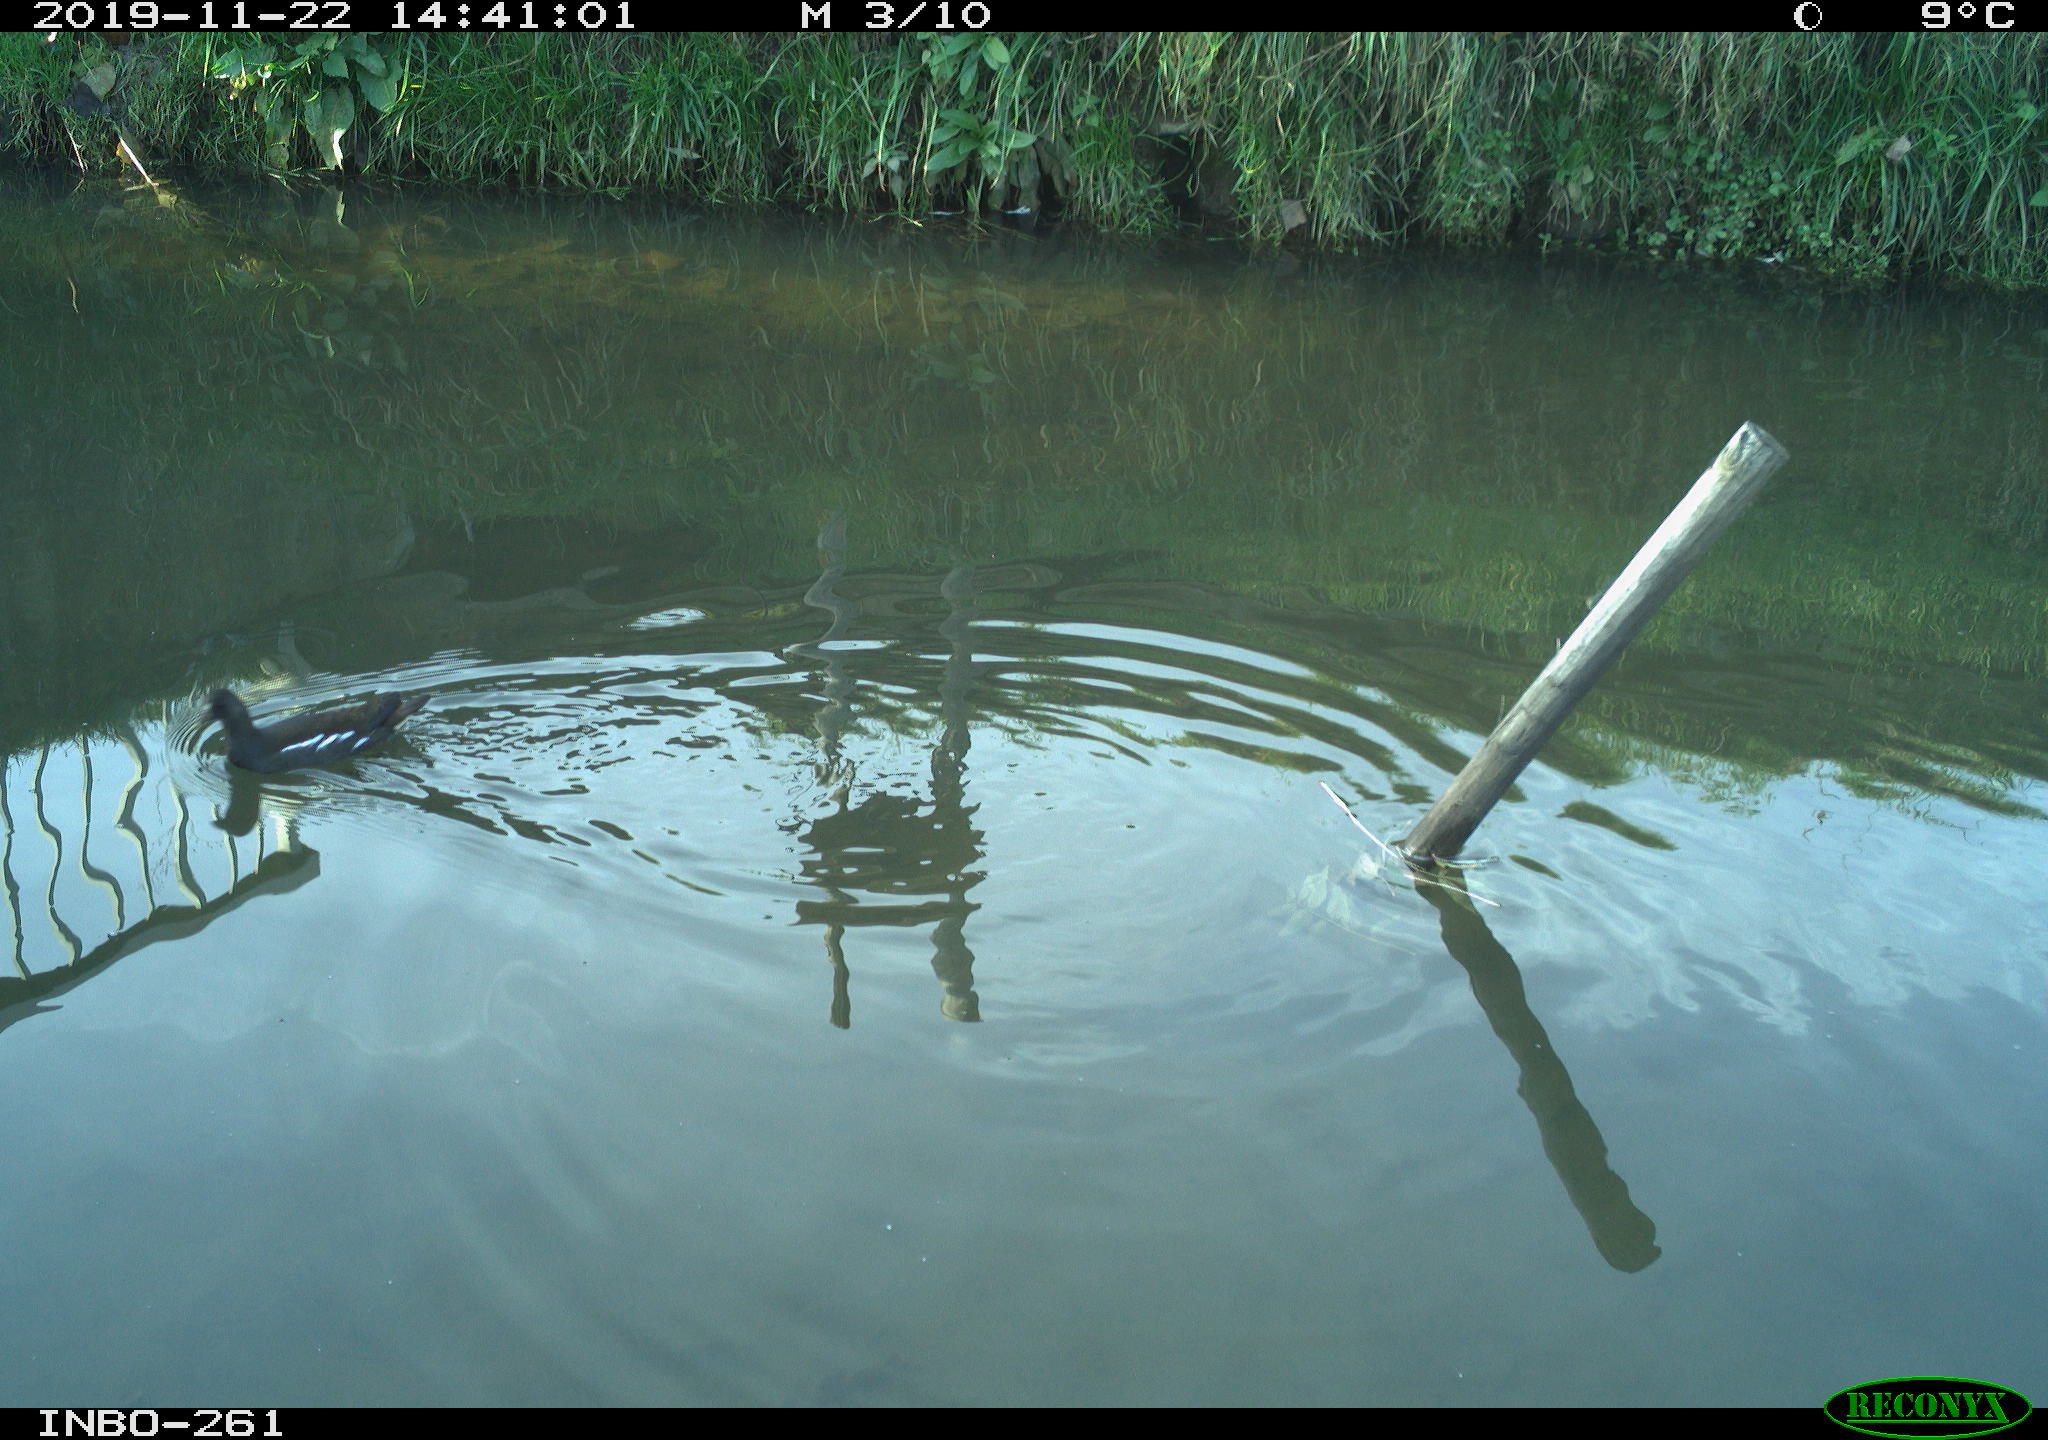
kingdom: Animalia
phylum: Chordata
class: Aves
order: Gruiformes
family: Rallidae
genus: Gallinula
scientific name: Gallinula chloropus
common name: Common moorhen
